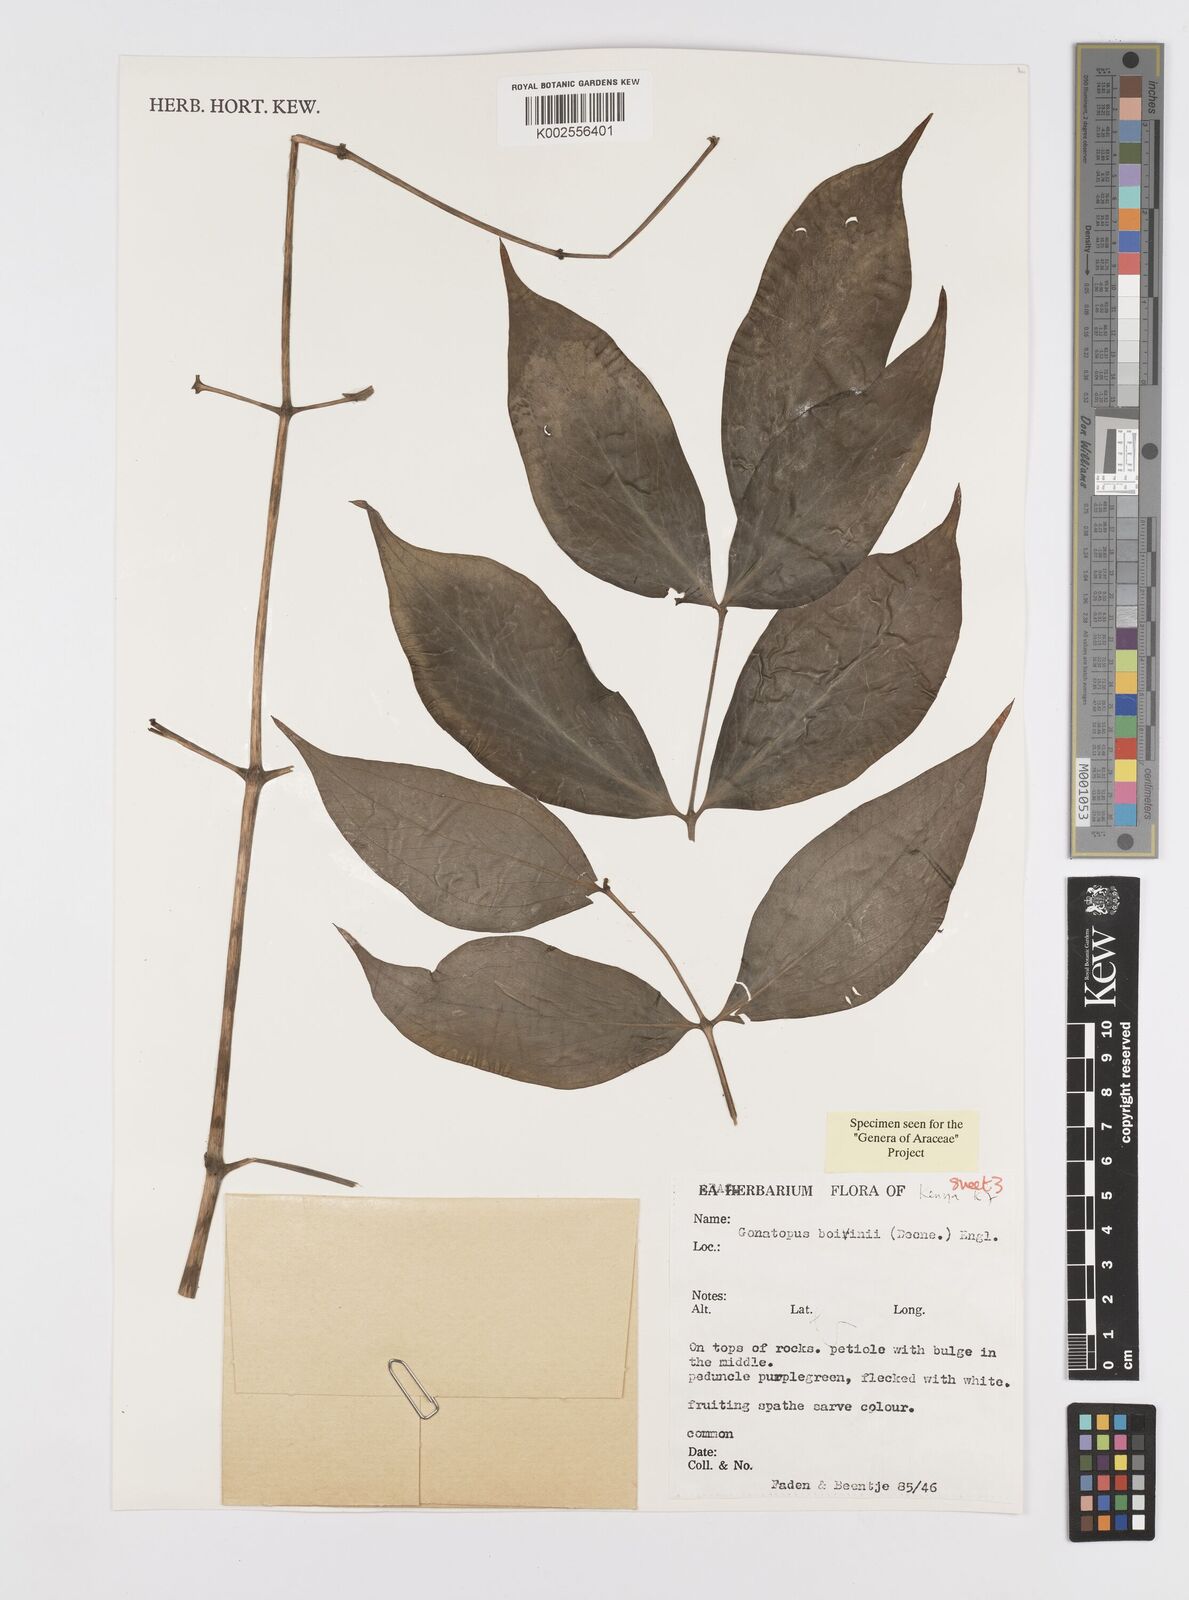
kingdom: Plantae
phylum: Tracheophyta
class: Liliopsida
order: Alismatales
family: Araceae
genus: Gonatopus
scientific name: Gonatopus boivinii
